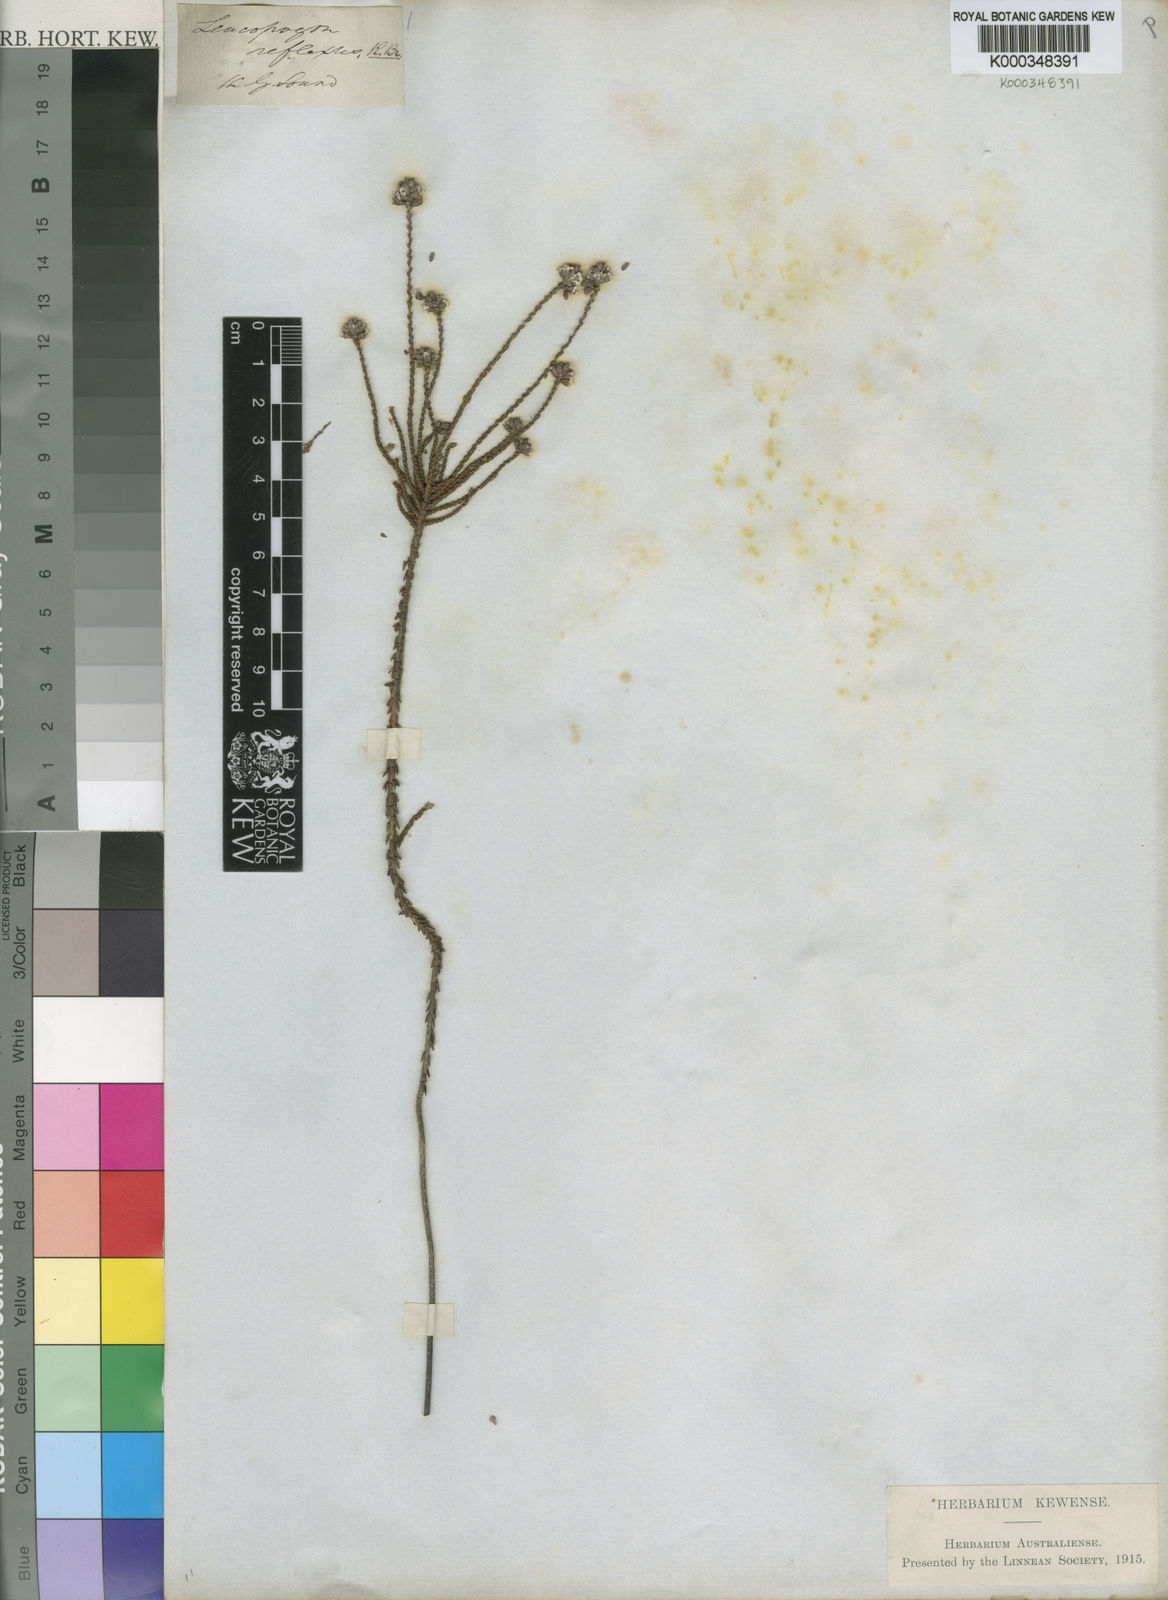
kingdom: Plantae
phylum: Tracheophyta
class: Magnoliopsida
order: Ericales
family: Ericaceae
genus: Leucopogon
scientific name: Leucopogon reflexus
